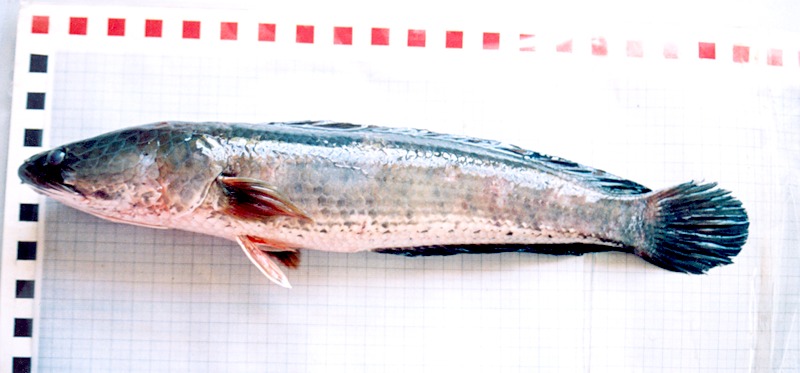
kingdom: Animalia
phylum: Chordata
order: Perciformes
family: Channidae
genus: Channa
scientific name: Channa striata
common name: Striped snakehead
